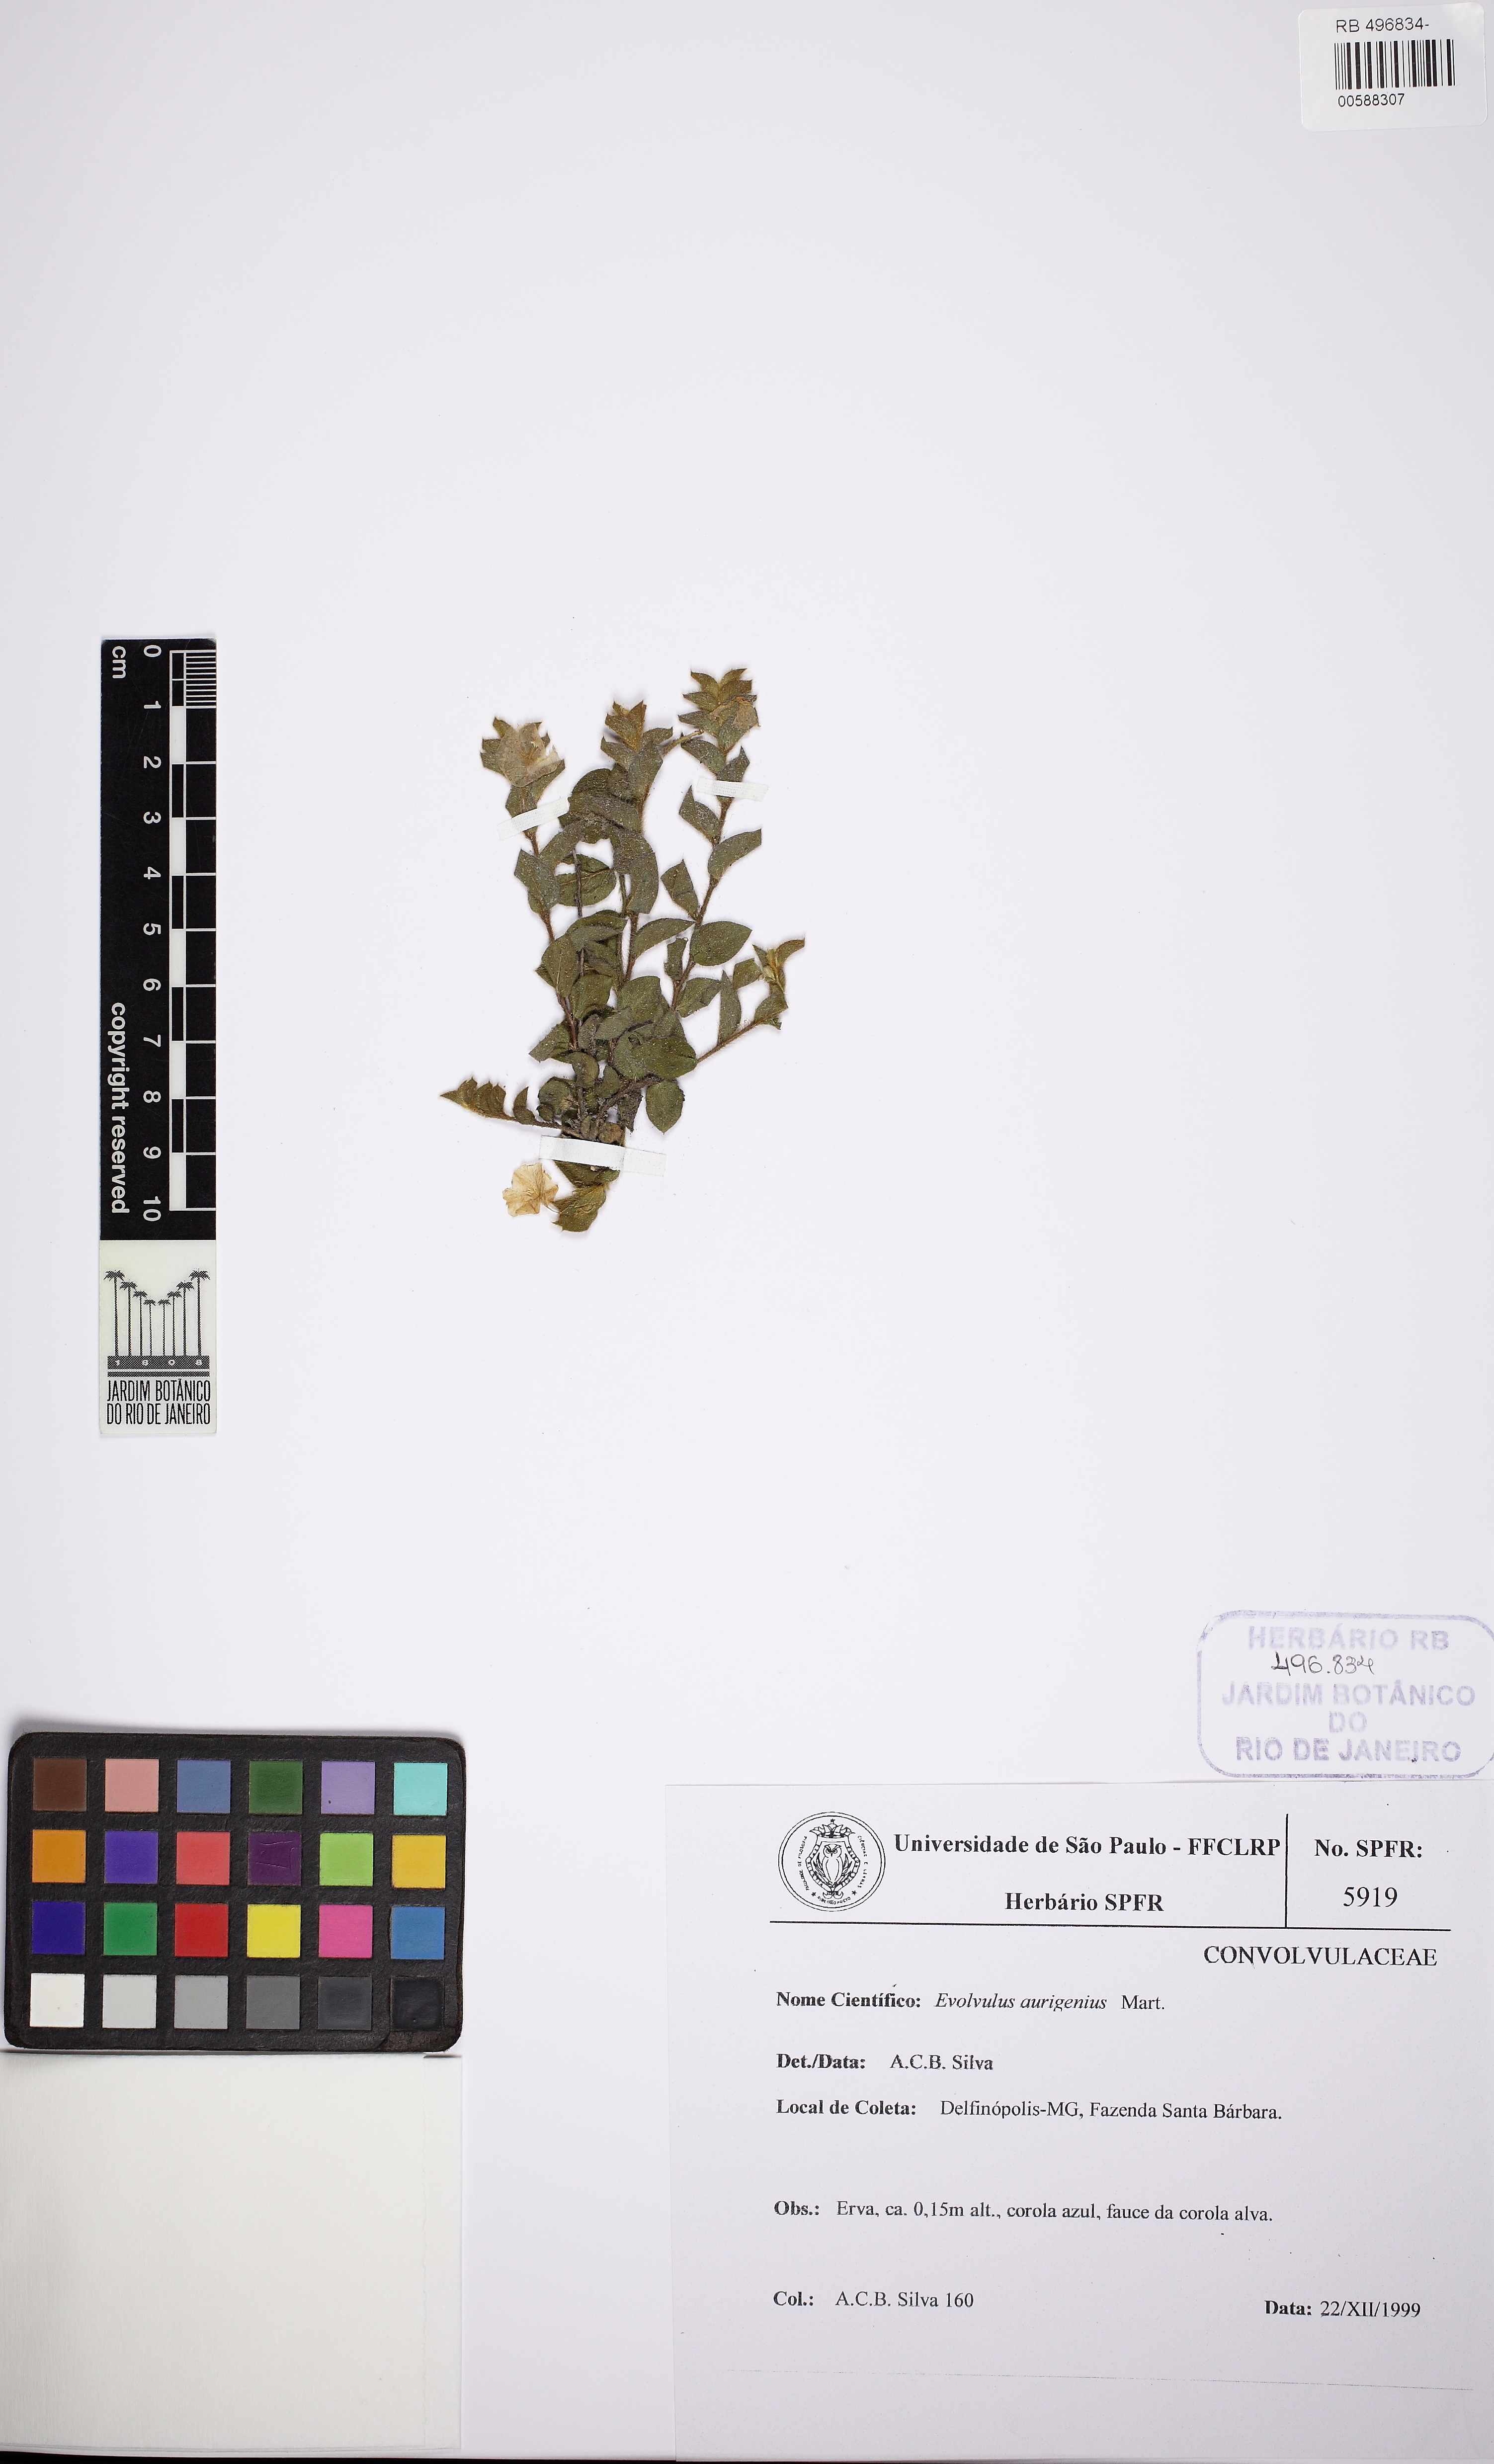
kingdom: Plantae
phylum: Tracheophyta
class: Magnoliopsida
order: Solanales
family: Convolvulaceae
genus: Evolvulus
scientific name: Evolvulus aurigenius
